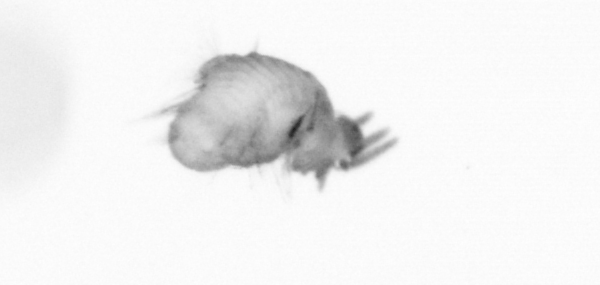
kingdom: Animalia
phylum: Annelida
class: Polychaeta
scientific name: Polychaeta
